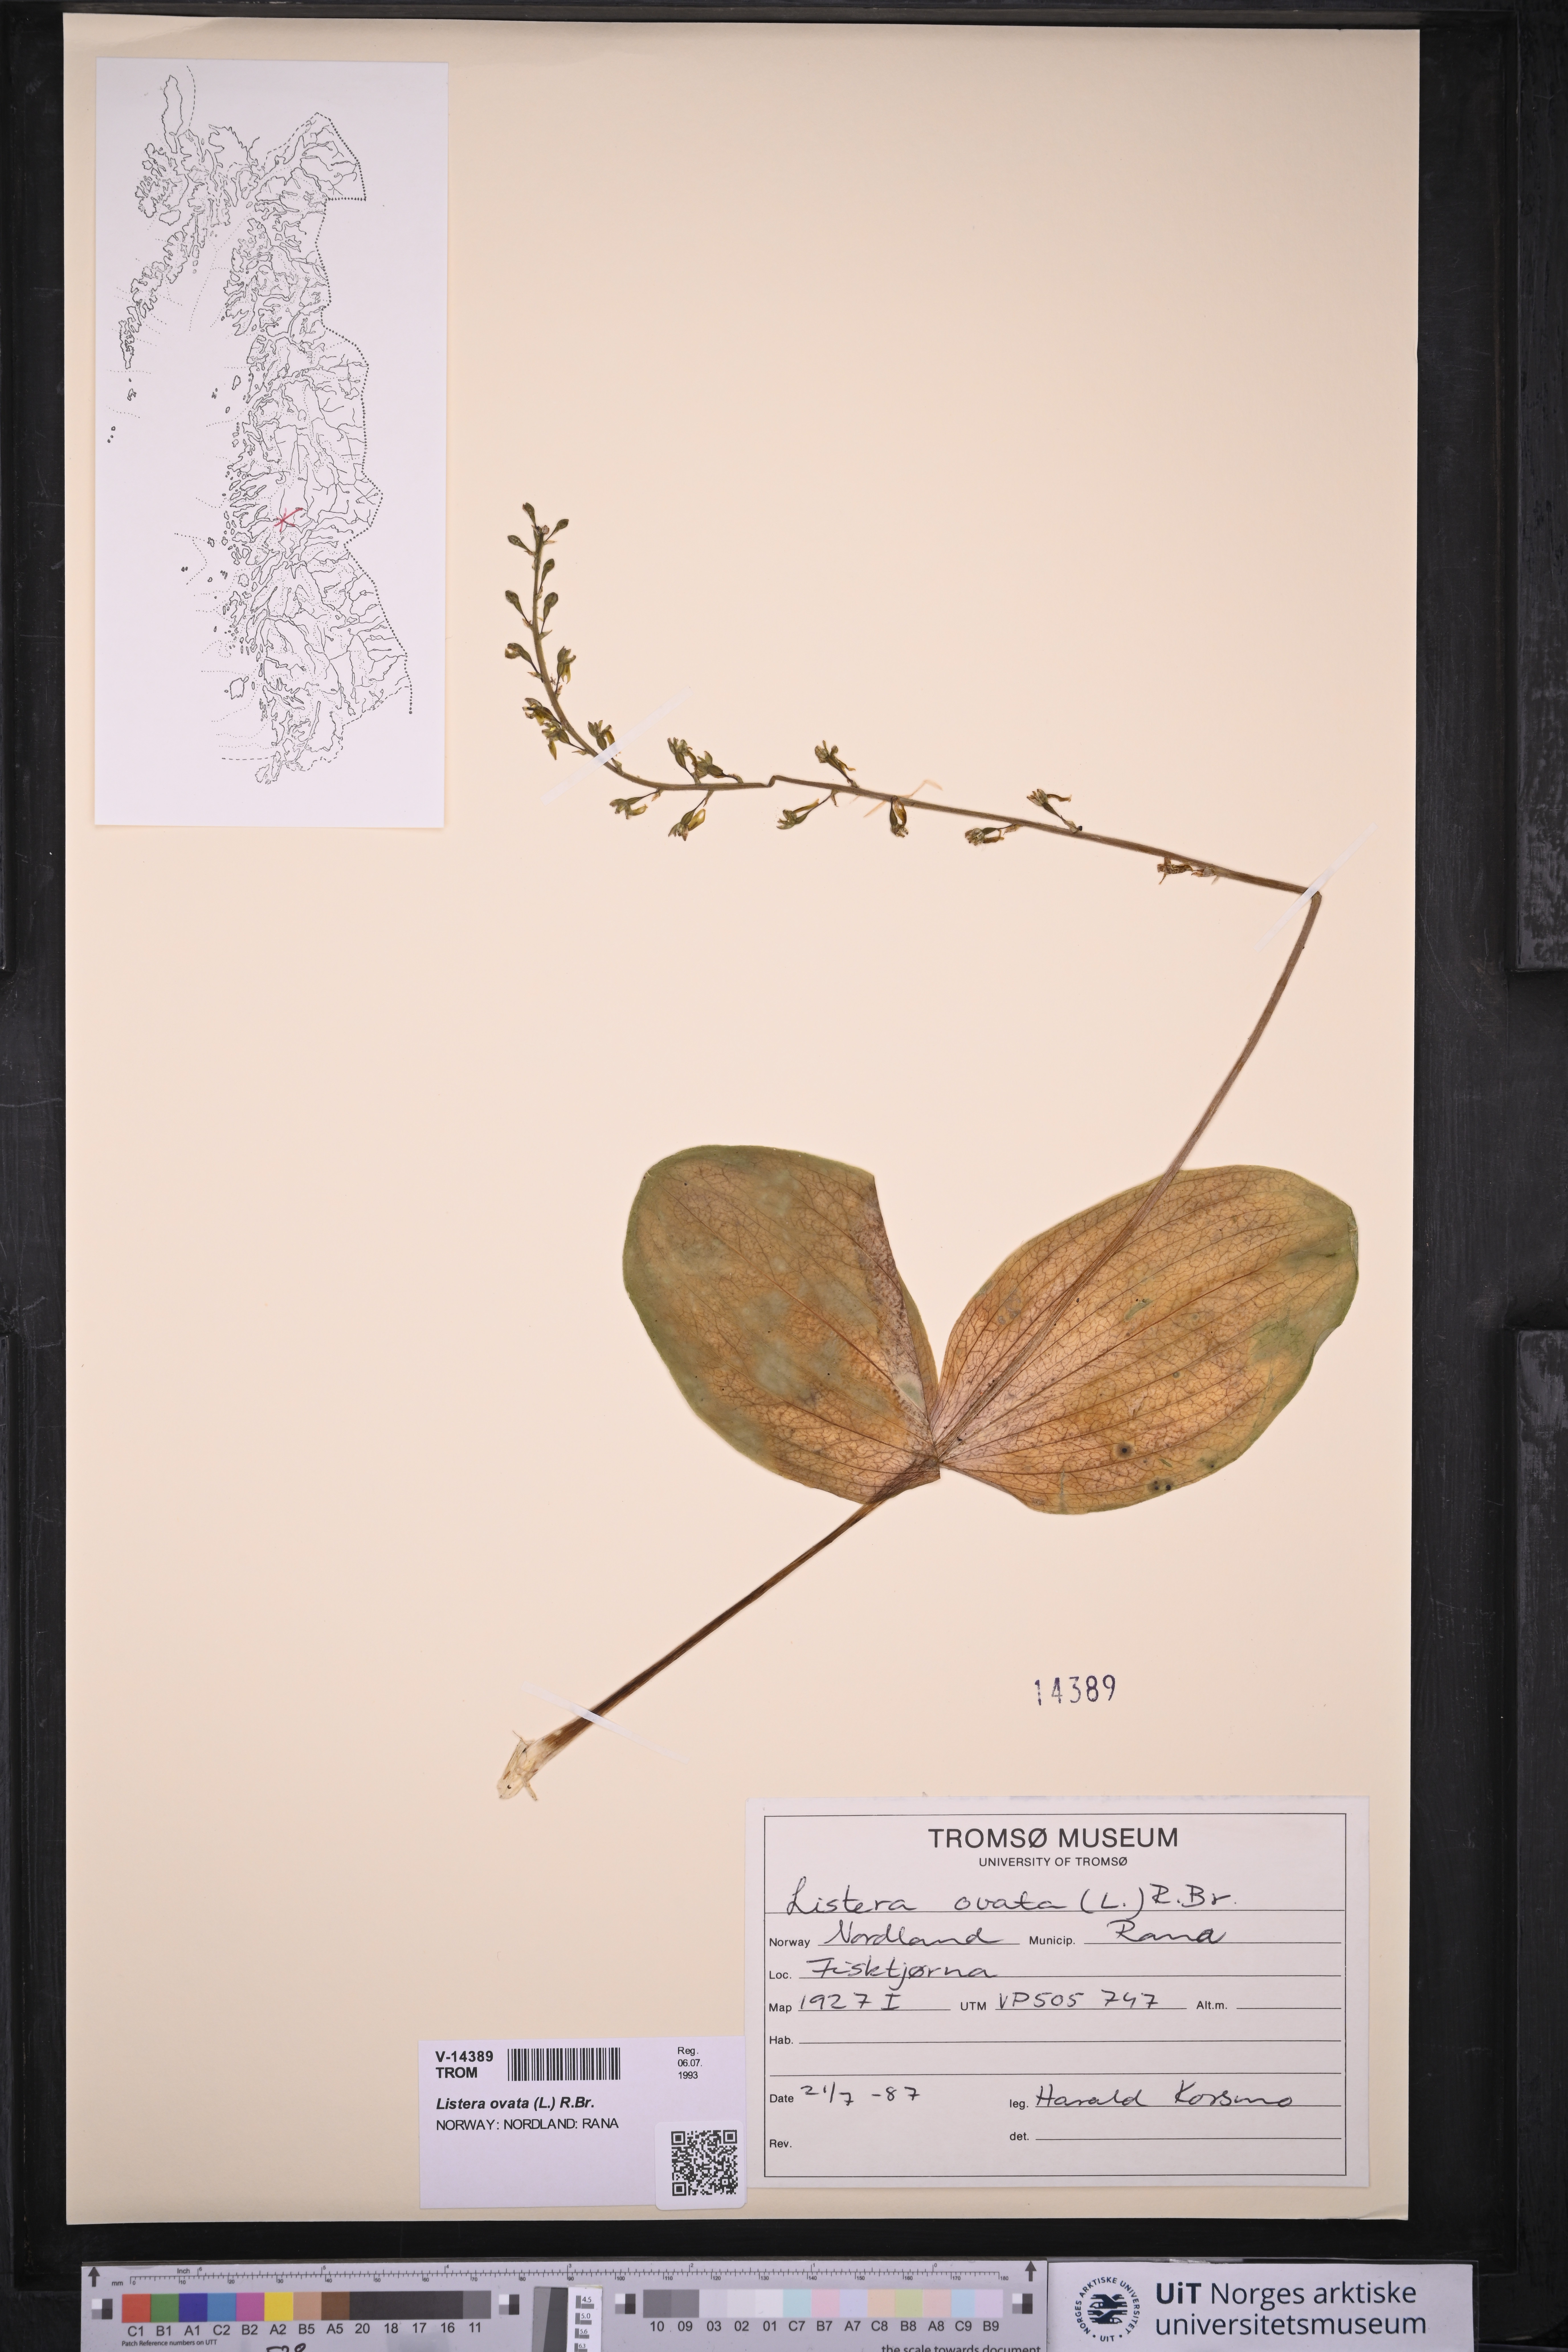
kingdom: Plantae
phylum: Tracheophyta
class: Liliopsida
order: Asparagales
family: Orchidaceae
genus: Neottia
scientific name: Neottia ovata
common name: Common twayblade
